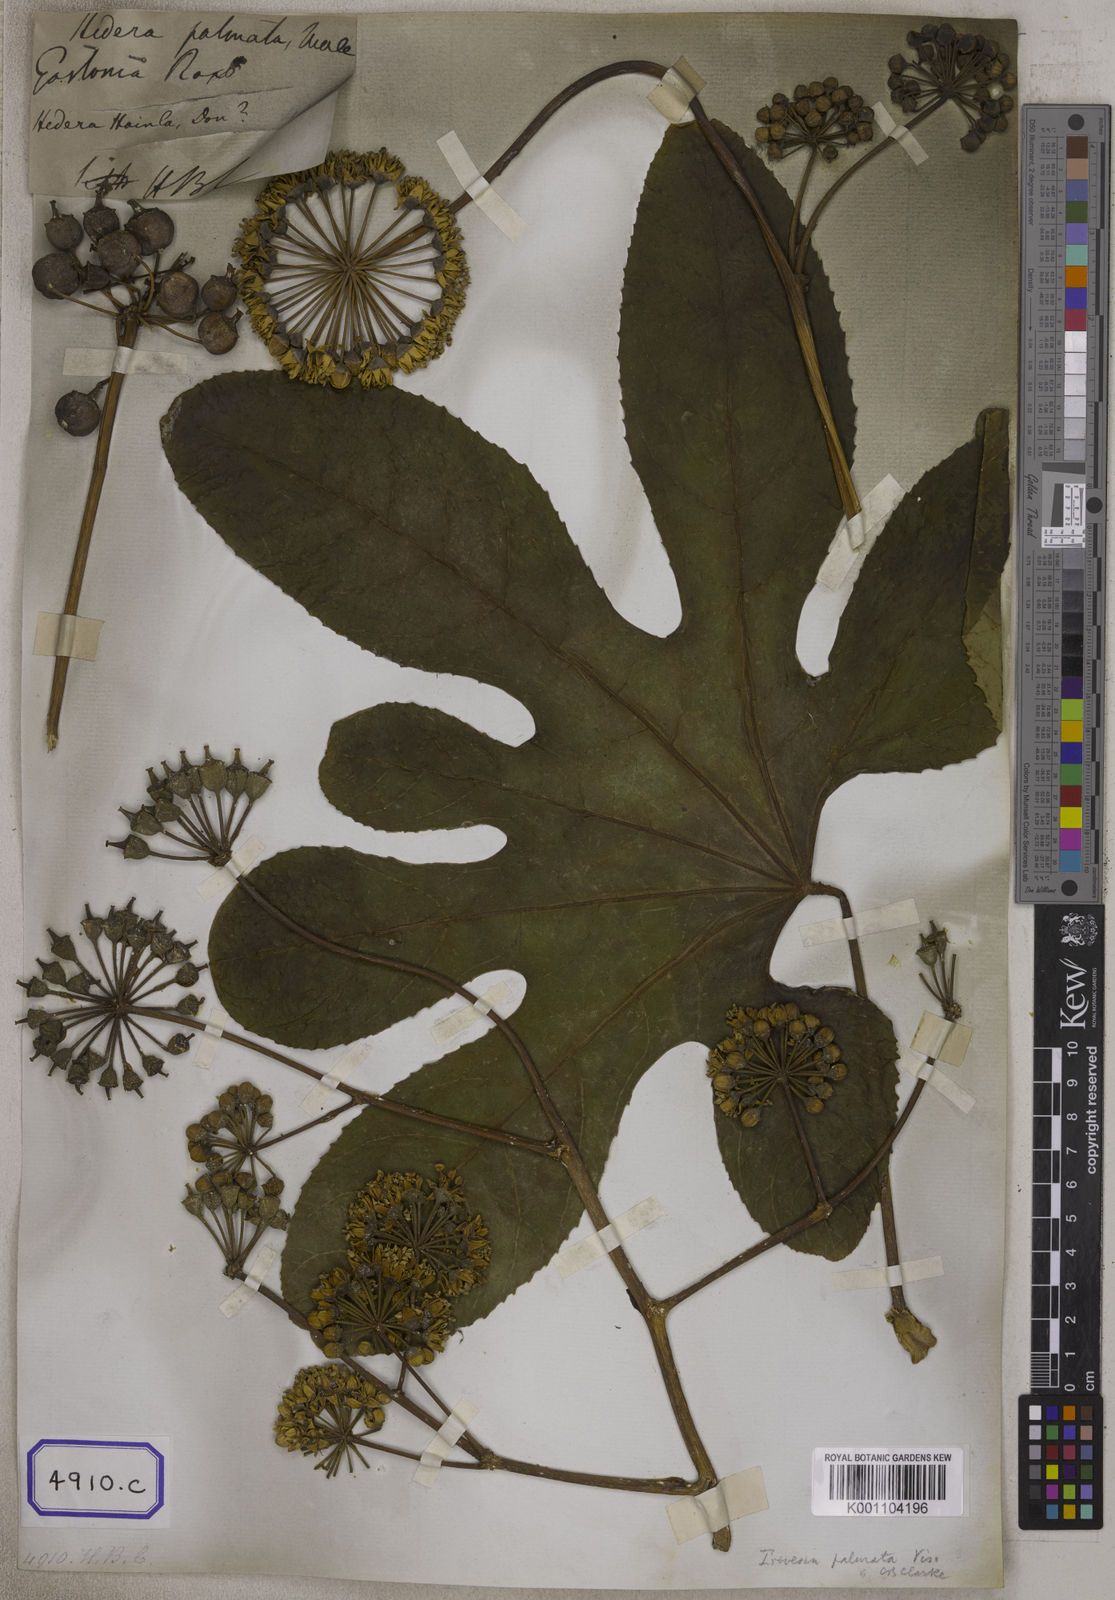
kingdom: Plantae
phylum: Tracheophyta
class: Magnoliopsida
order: Apiales
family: Araliaceae
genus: Hedera
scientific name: Hedera
